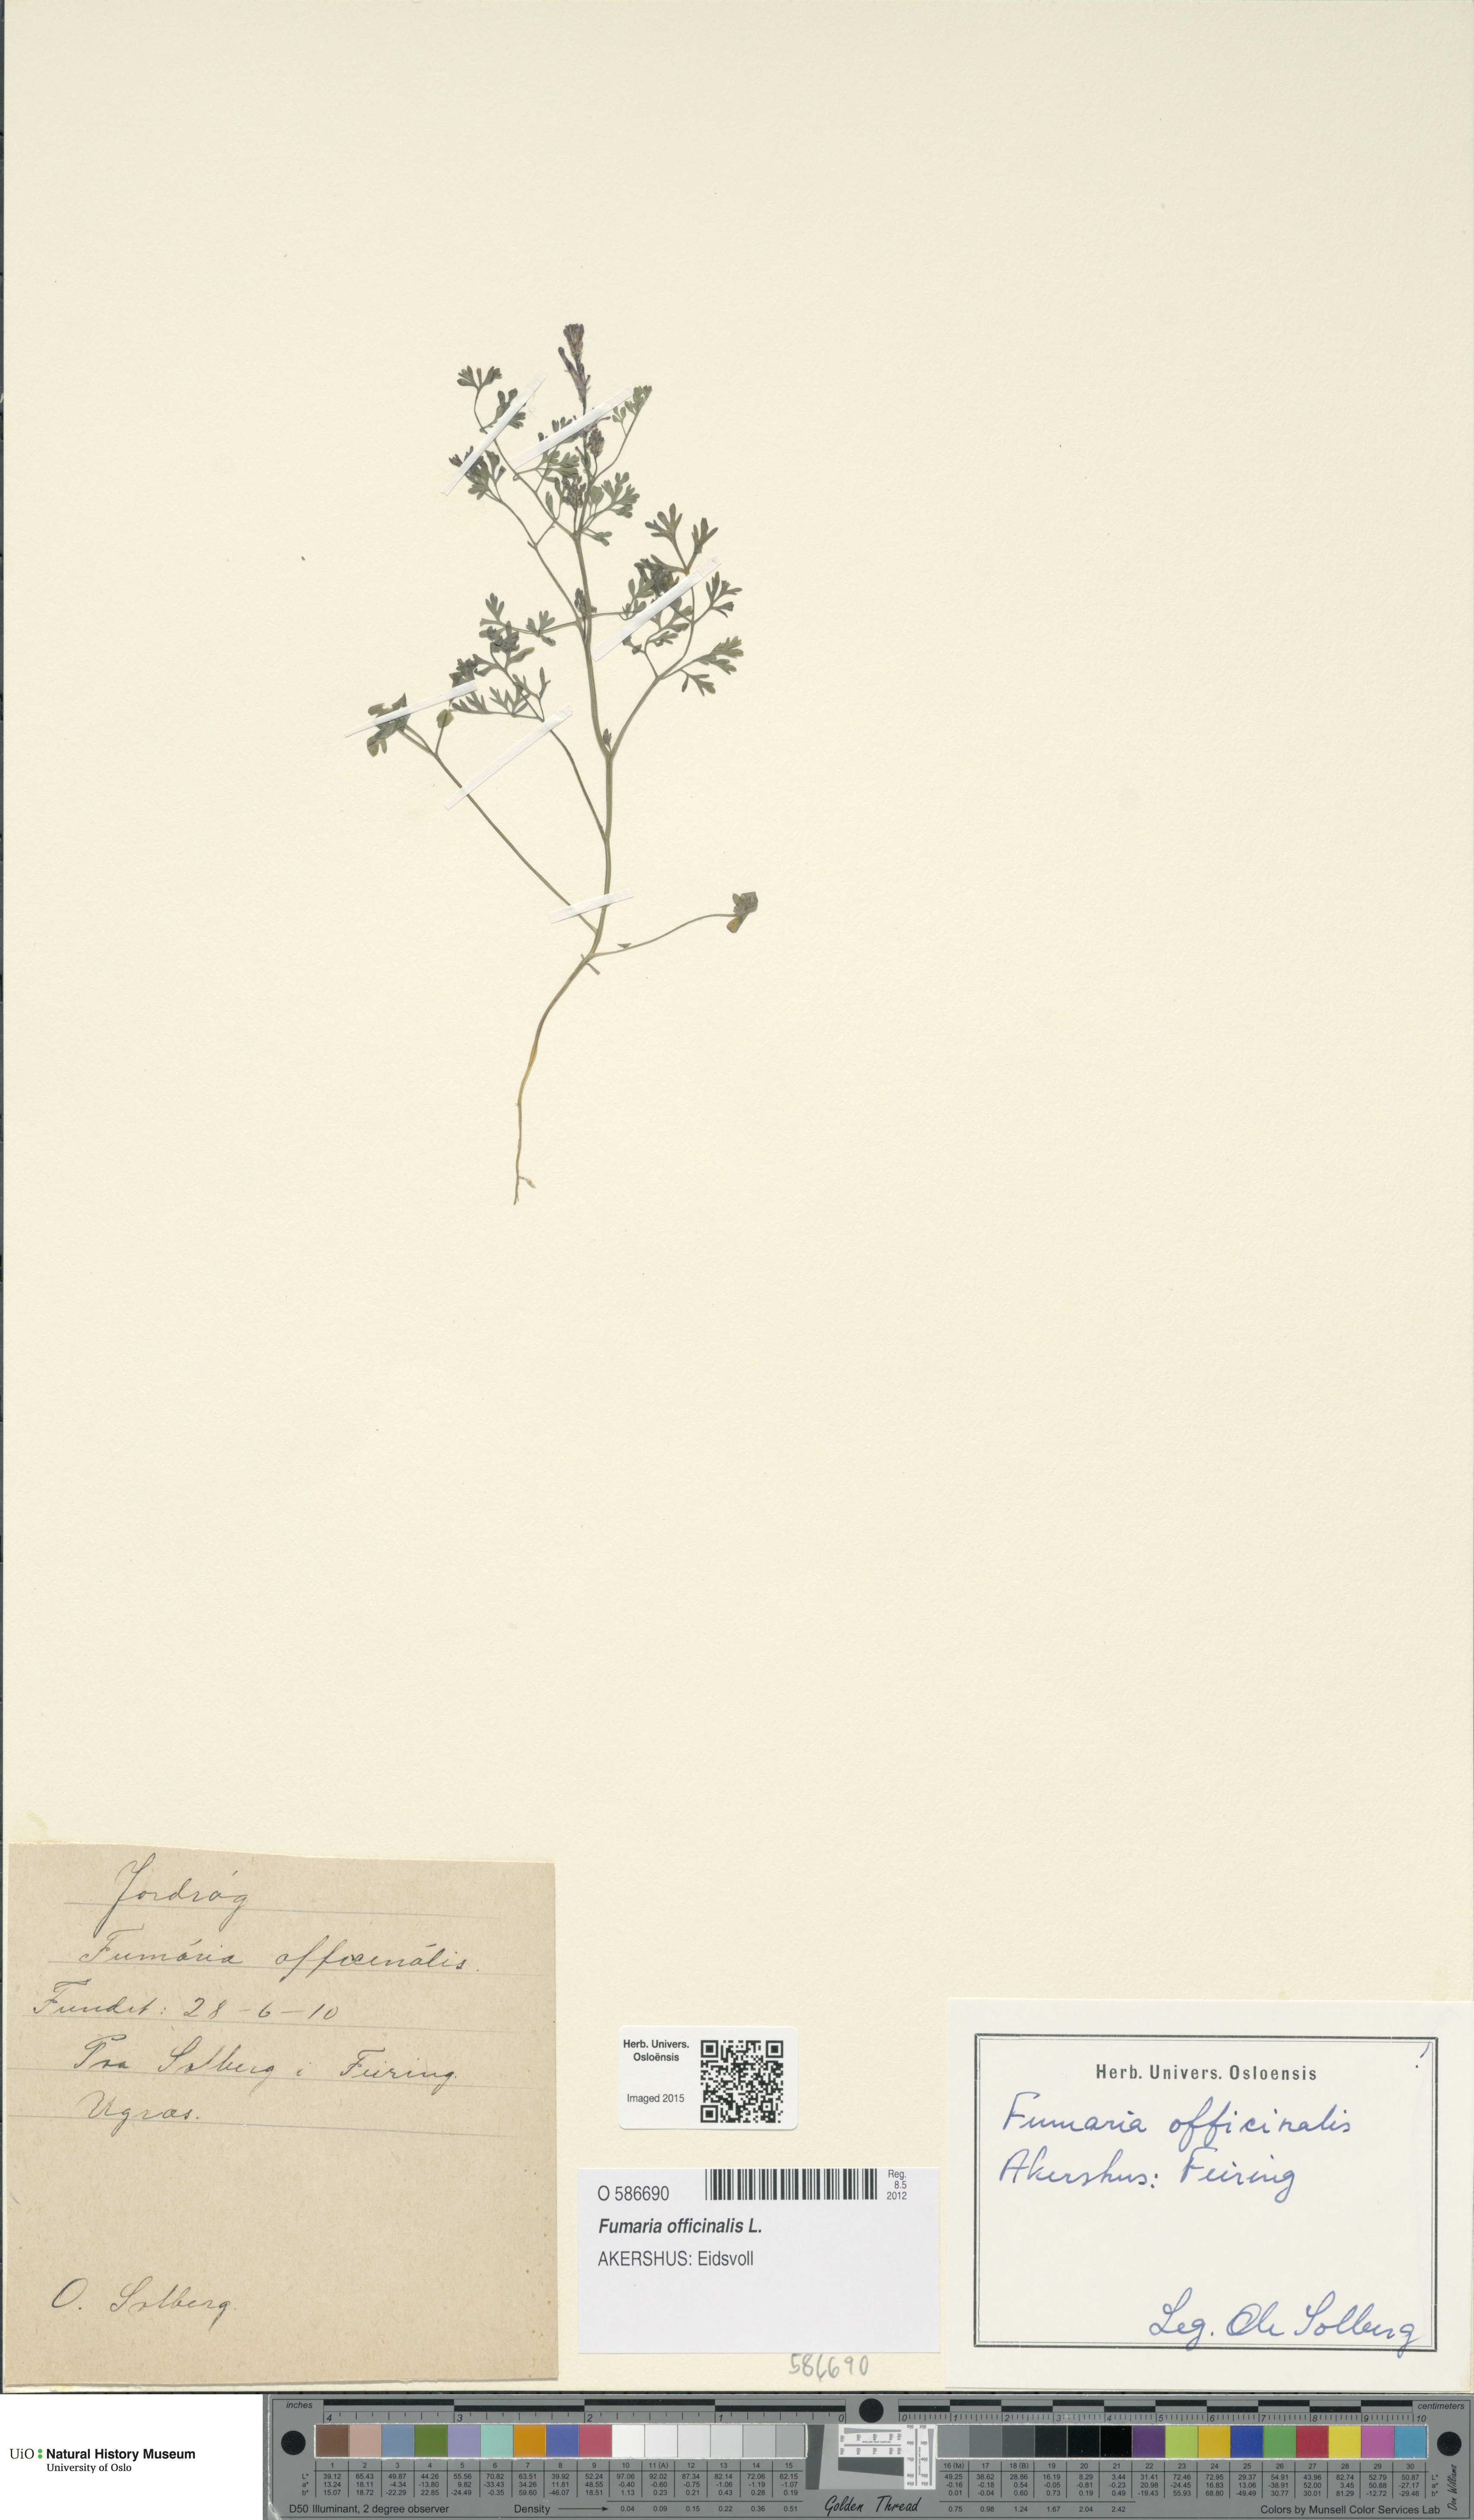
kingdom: Plantae
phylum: Tracheophyta
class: Magnoliopsida
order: Ranunculales
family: Papaveraceae
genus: Fumaria
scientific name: Fumaria officinalis
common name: Common fumitory
